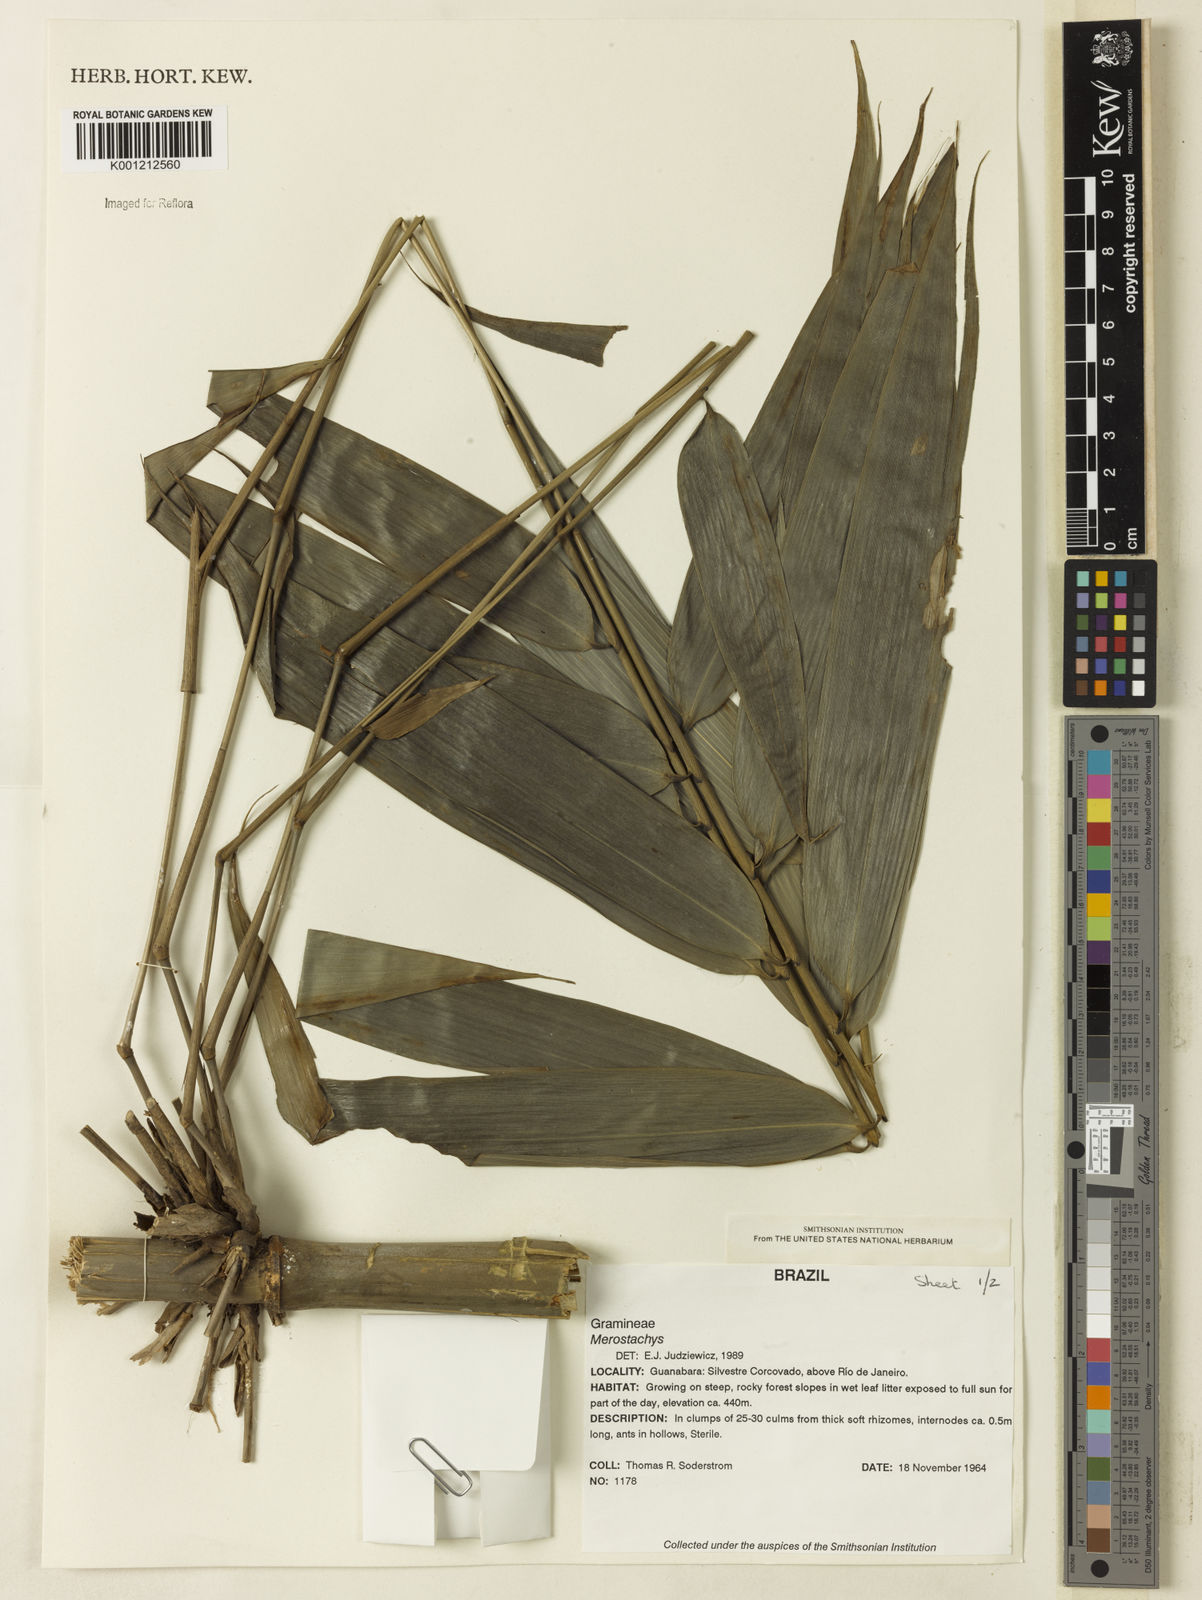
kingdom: Plantae
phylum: Tracheophyta
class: Liliopsida
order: Poales
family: Poaceae
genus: Merostachys
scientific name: Merostachys
